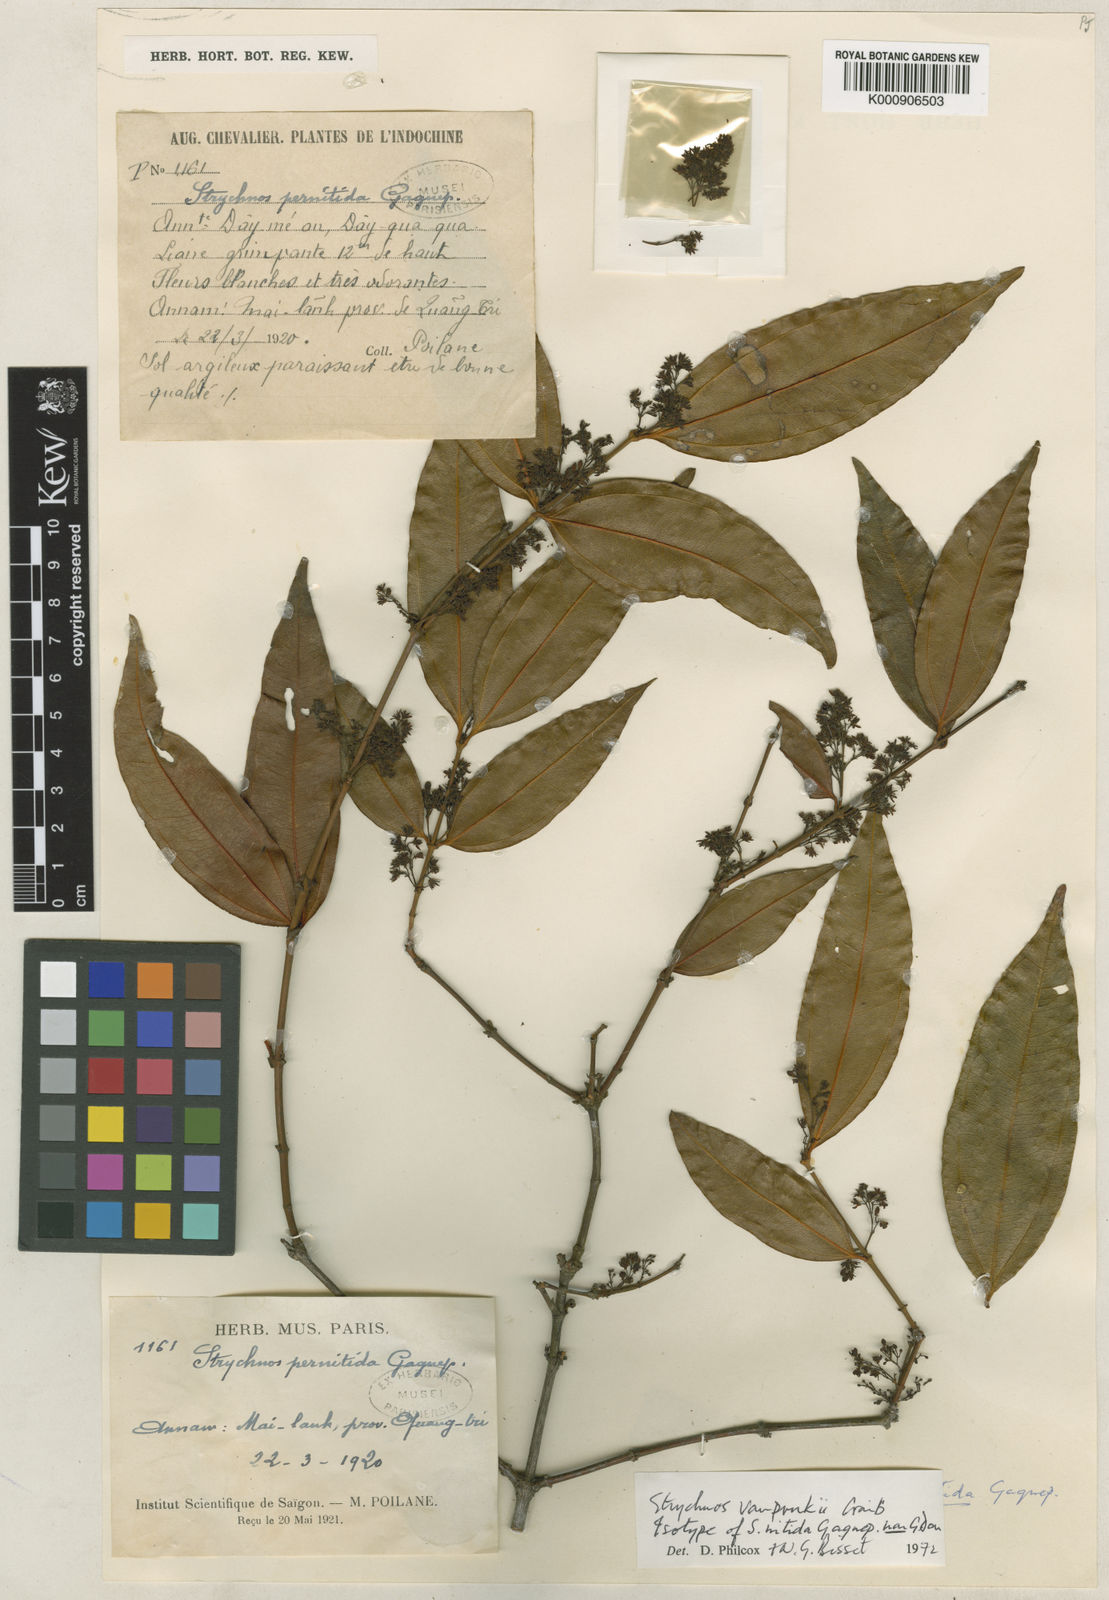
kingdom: Plantae
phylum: Tracheophyta
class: Magnoliopsida
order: Gentianales
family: Loganiaceae
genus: Strychnos
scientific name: Strychnos vanprukii
